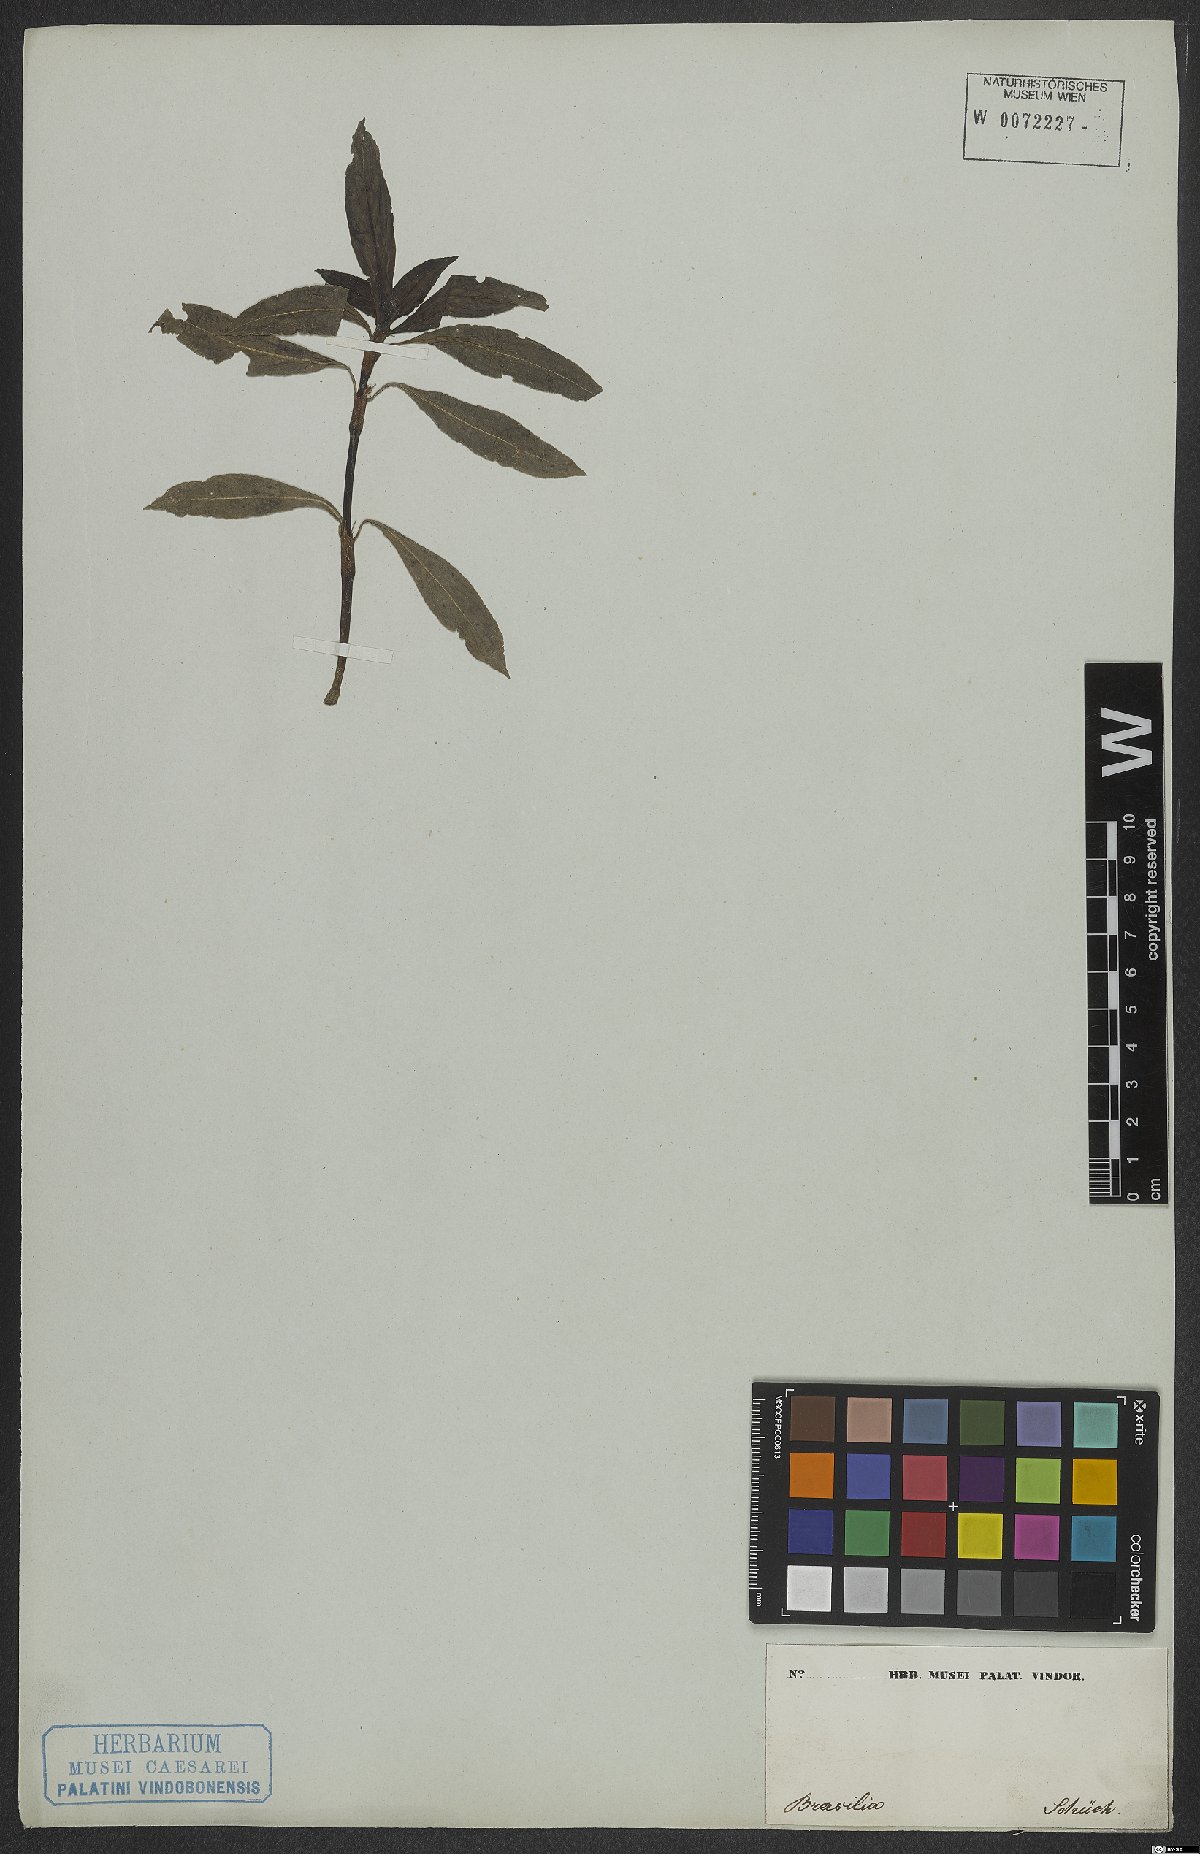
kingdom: Plantae
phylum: Tracheophyta
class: Magnoliopsida
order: Gentianales
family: Rubiaceae
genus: Diodia
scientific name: Diodia saponariifolia
